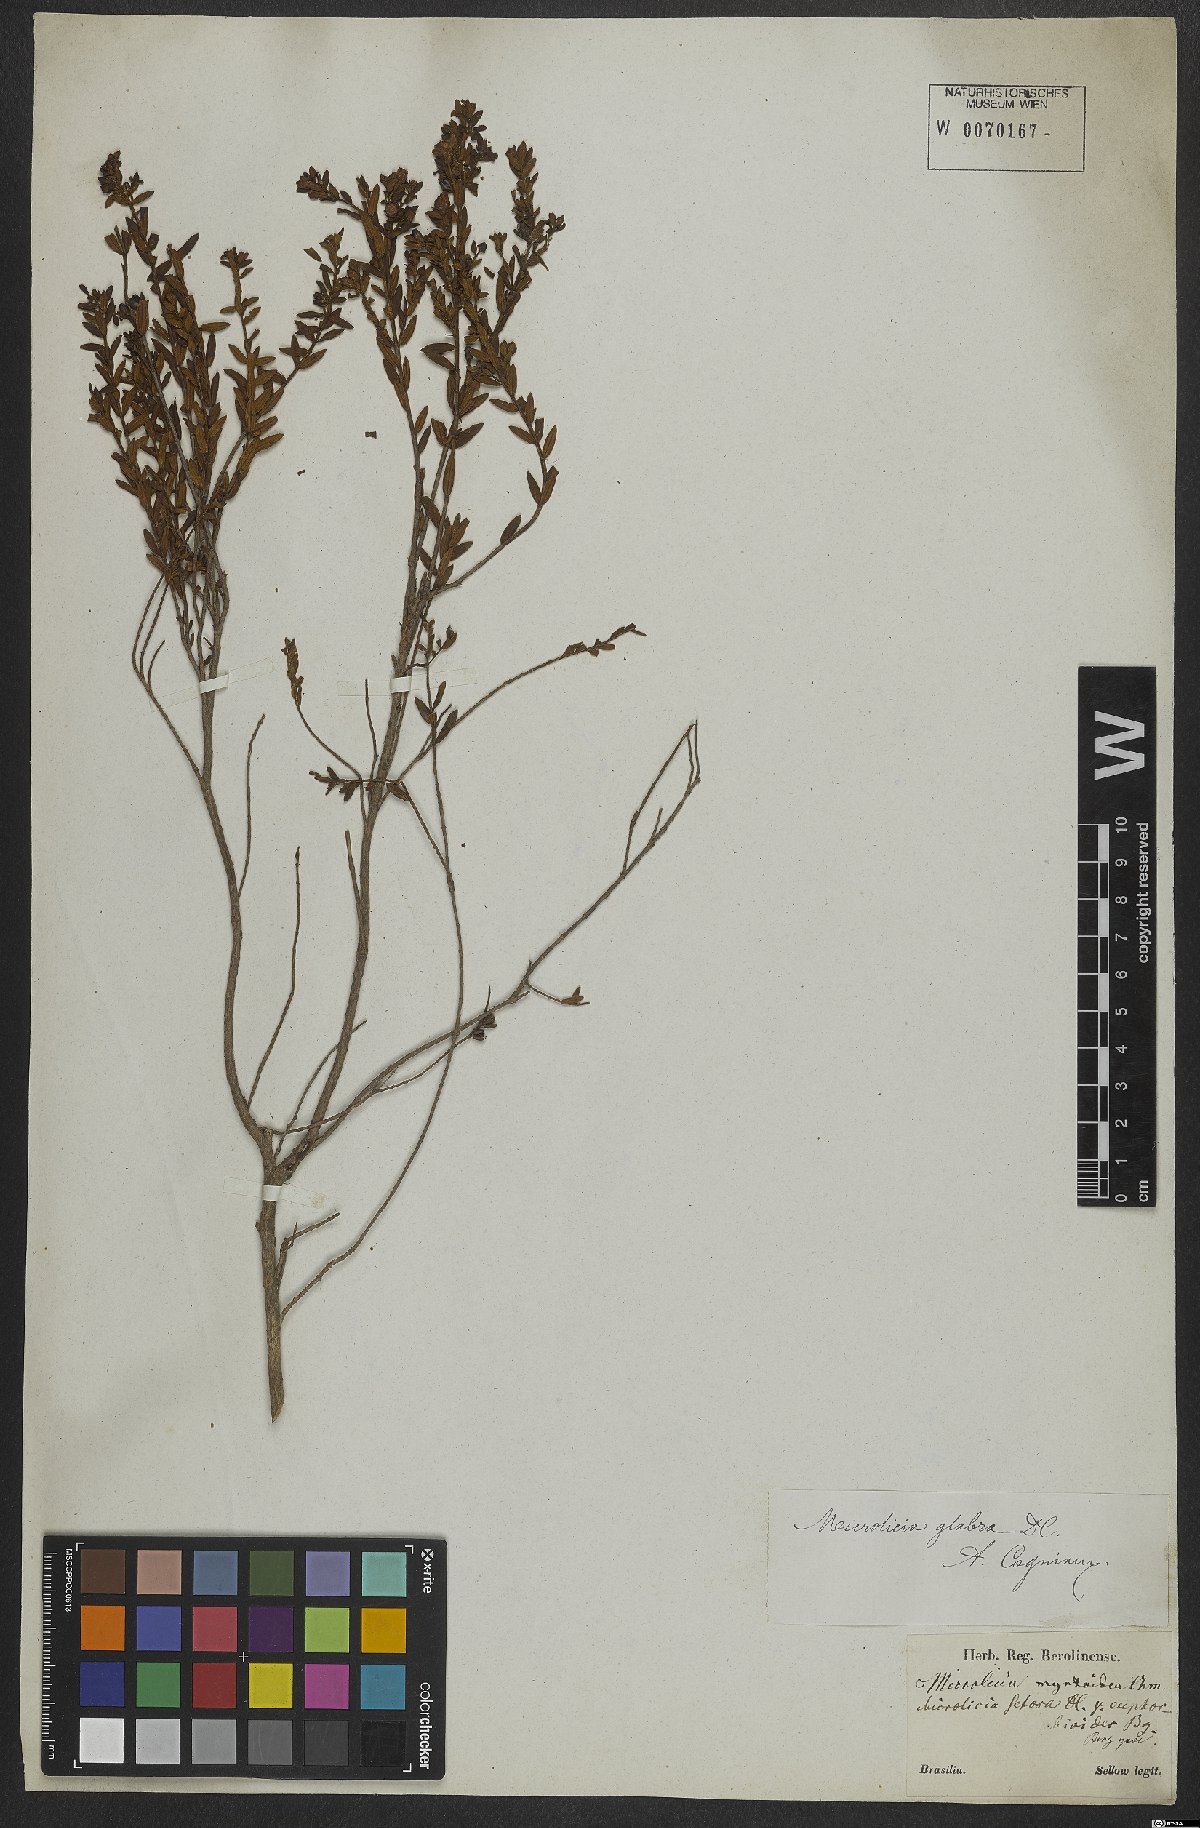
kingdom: Plantae
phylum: Tracheophyta
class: Magnoliopsida
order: Myrtales
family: Melastomataceae
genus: Microlicia
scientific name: Microlicia glabra
